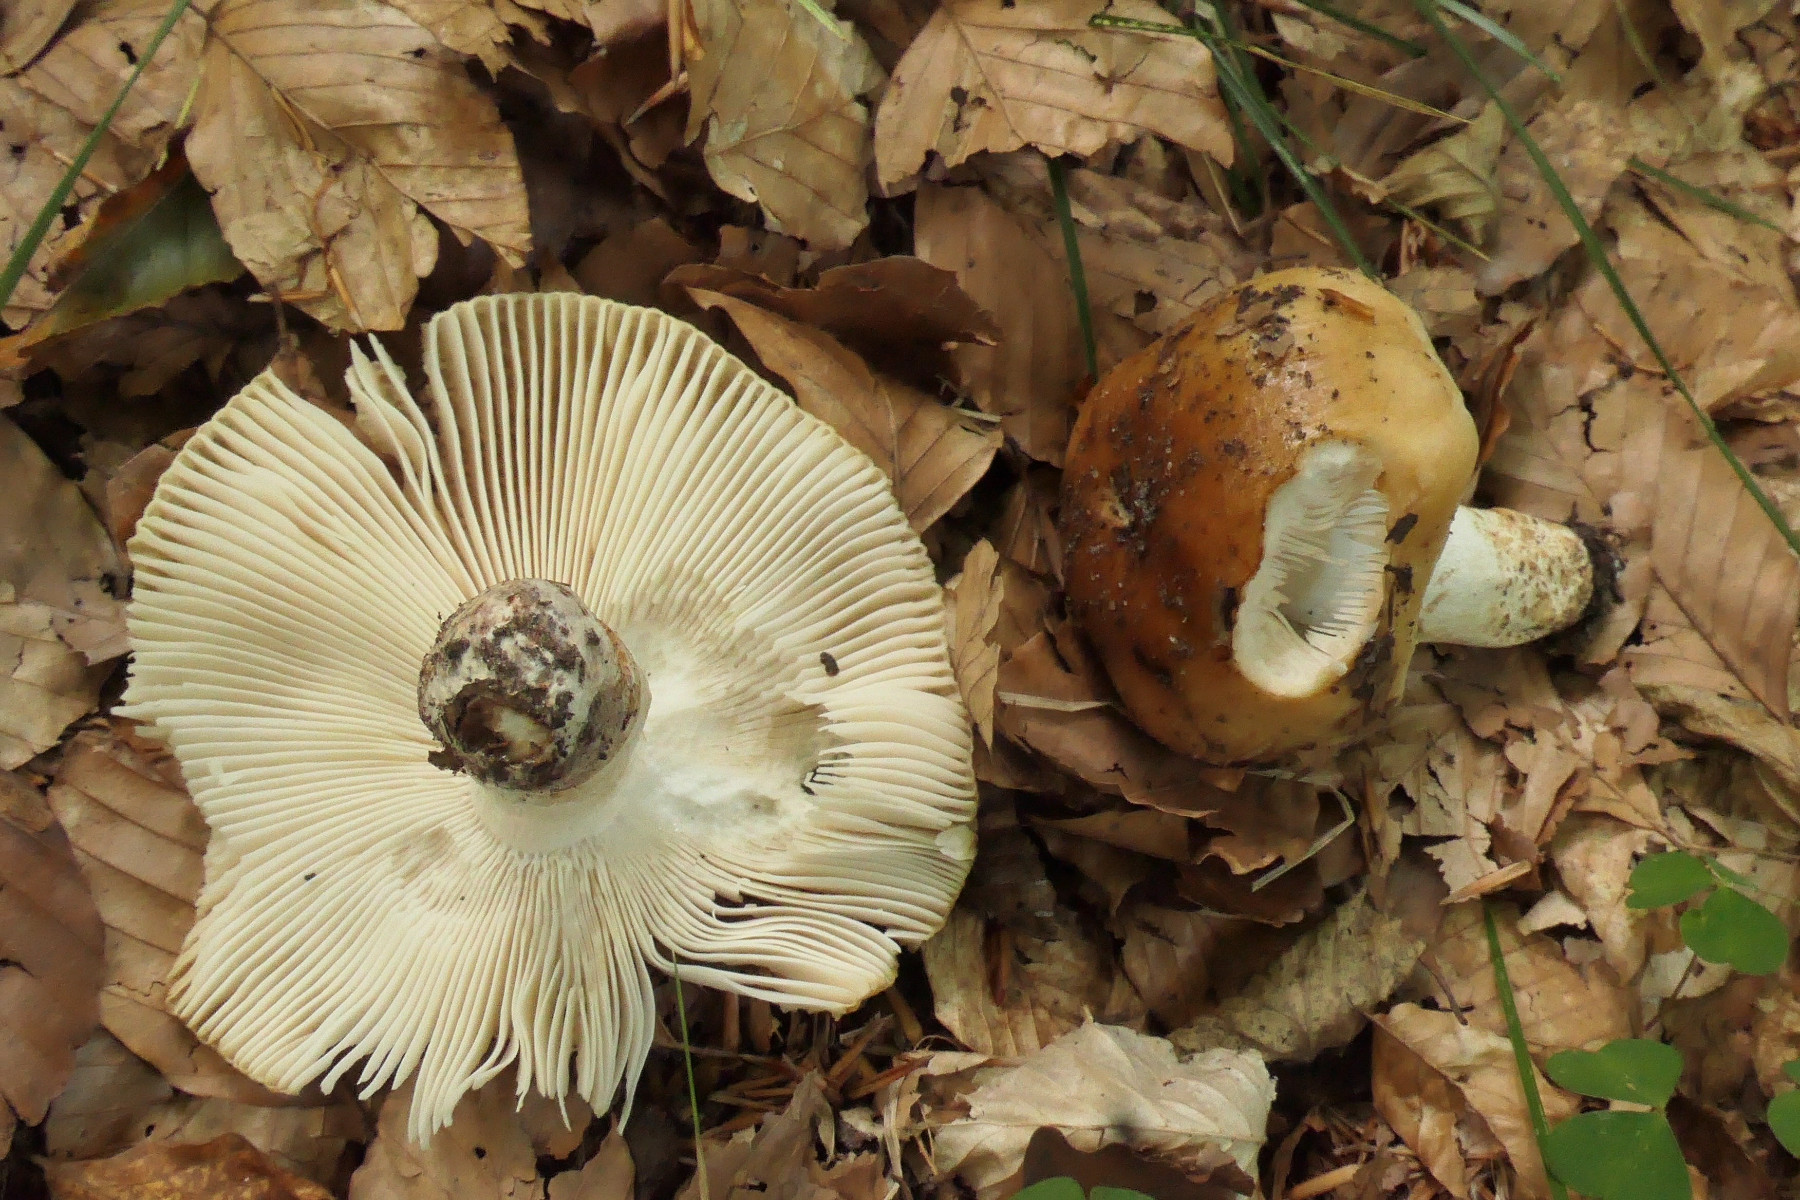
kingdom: Fungi
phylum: Basidiomycota
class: Agaricomycetes
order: Russulales
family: Russulaceae
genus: Russula
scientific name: Russula grata
